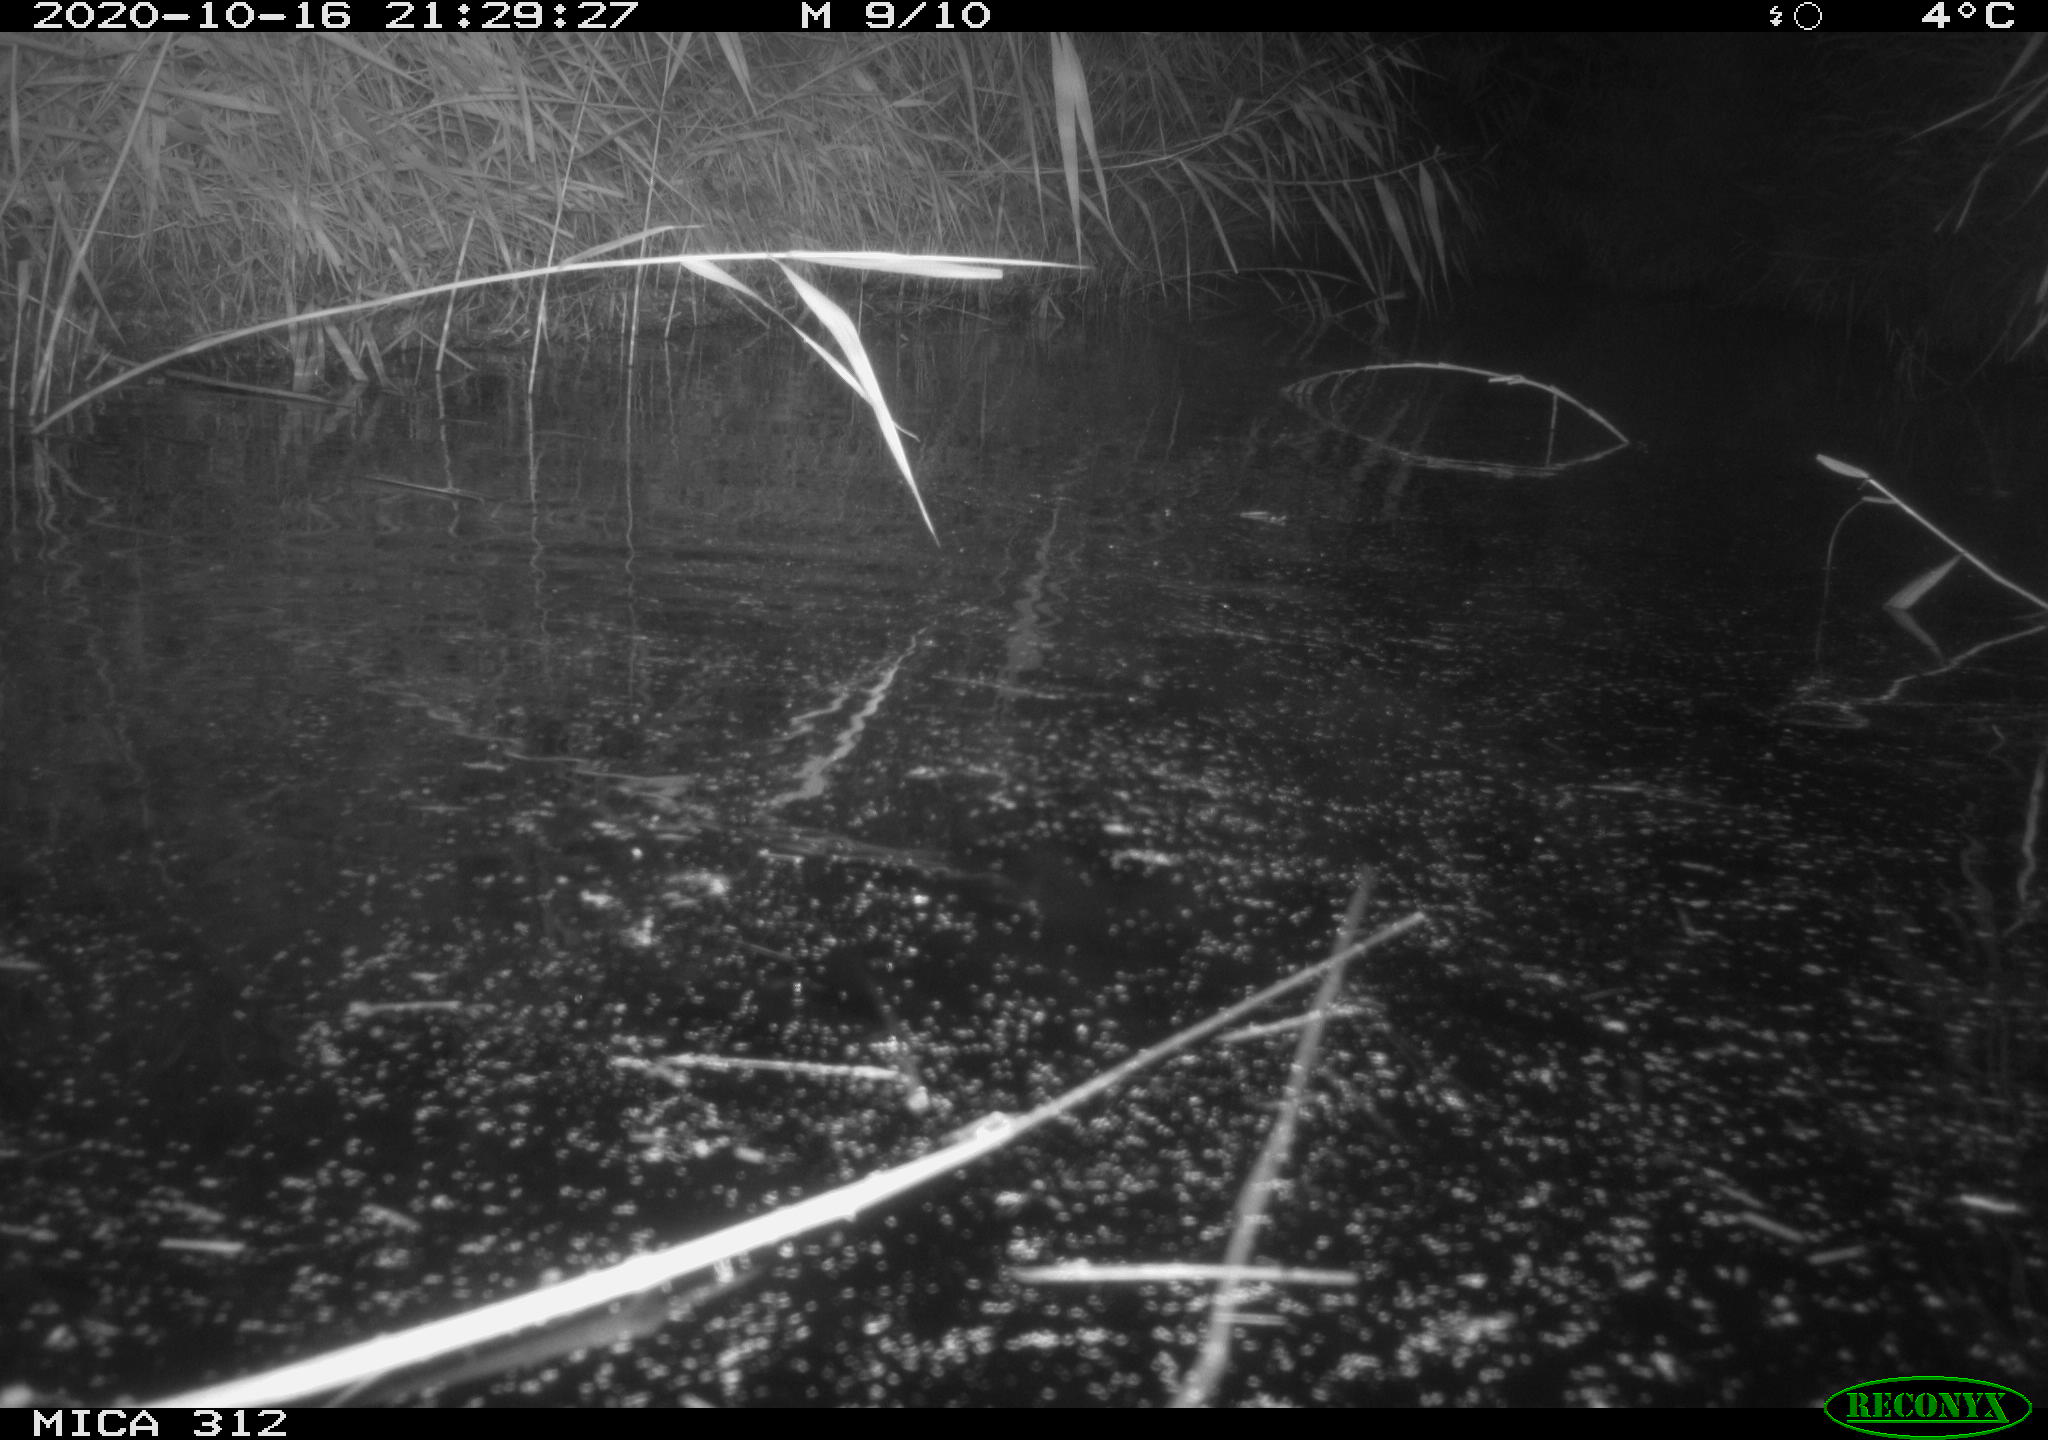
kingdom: Animalia
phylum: Chordata
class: Mammalia
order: Rodentia
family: Cricetidae
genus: Ondatra
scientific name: Ondatra zibethicus
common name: Muskrat
